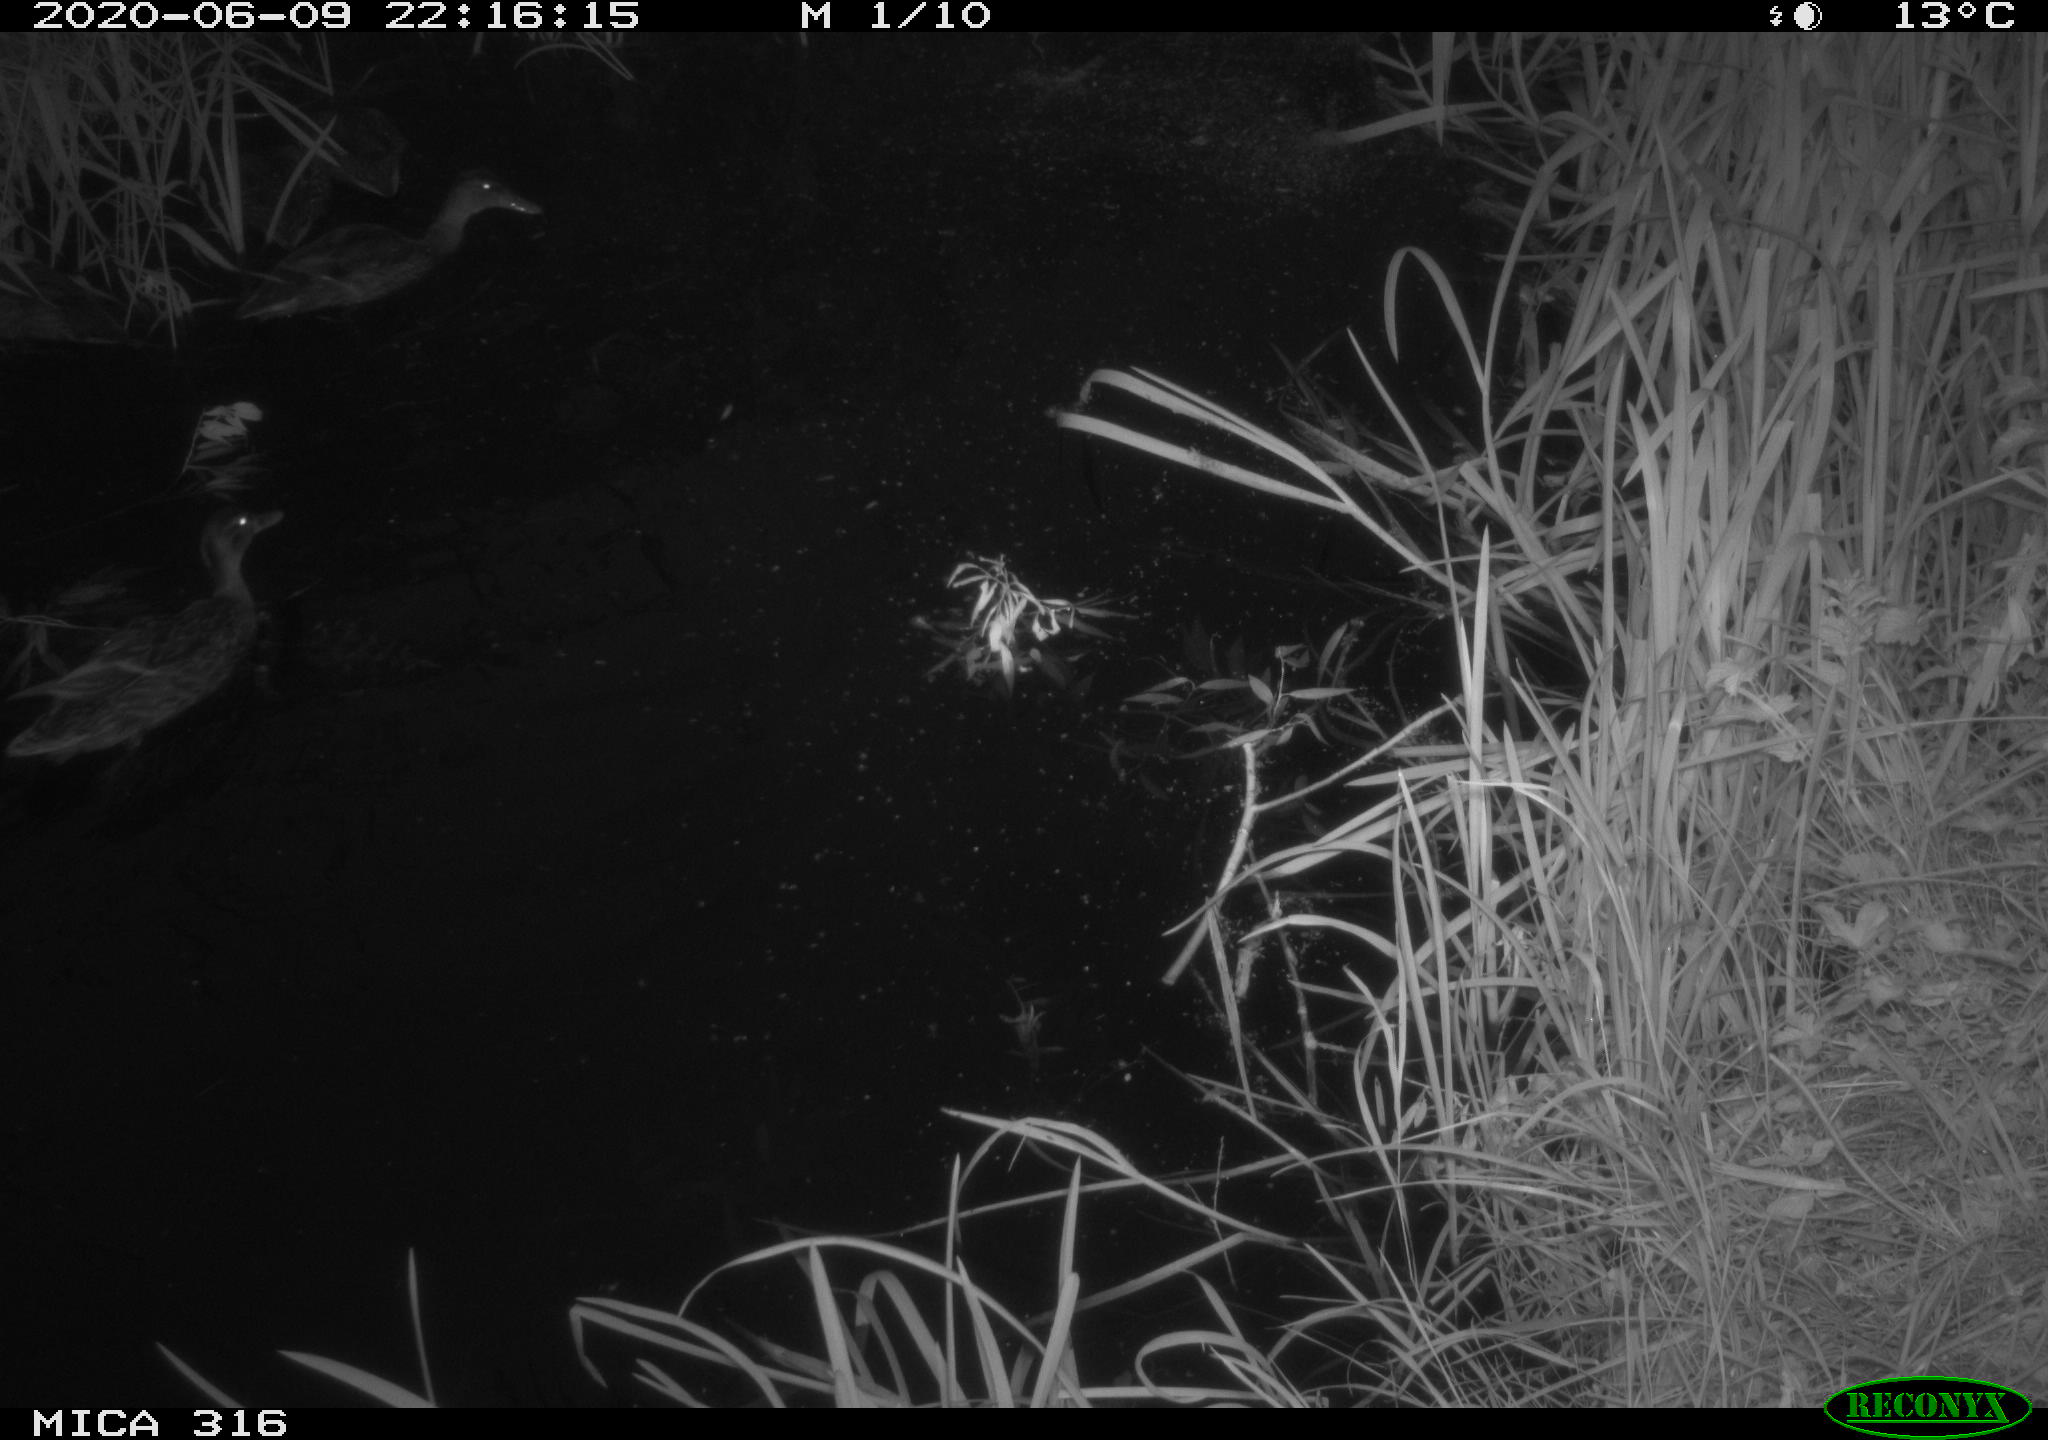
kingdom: Animalia
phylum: Chordata
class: Aves
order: Anseriformes
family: Anatidae
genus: Anas
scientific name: Anas platyrhynchos
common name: Mallard
